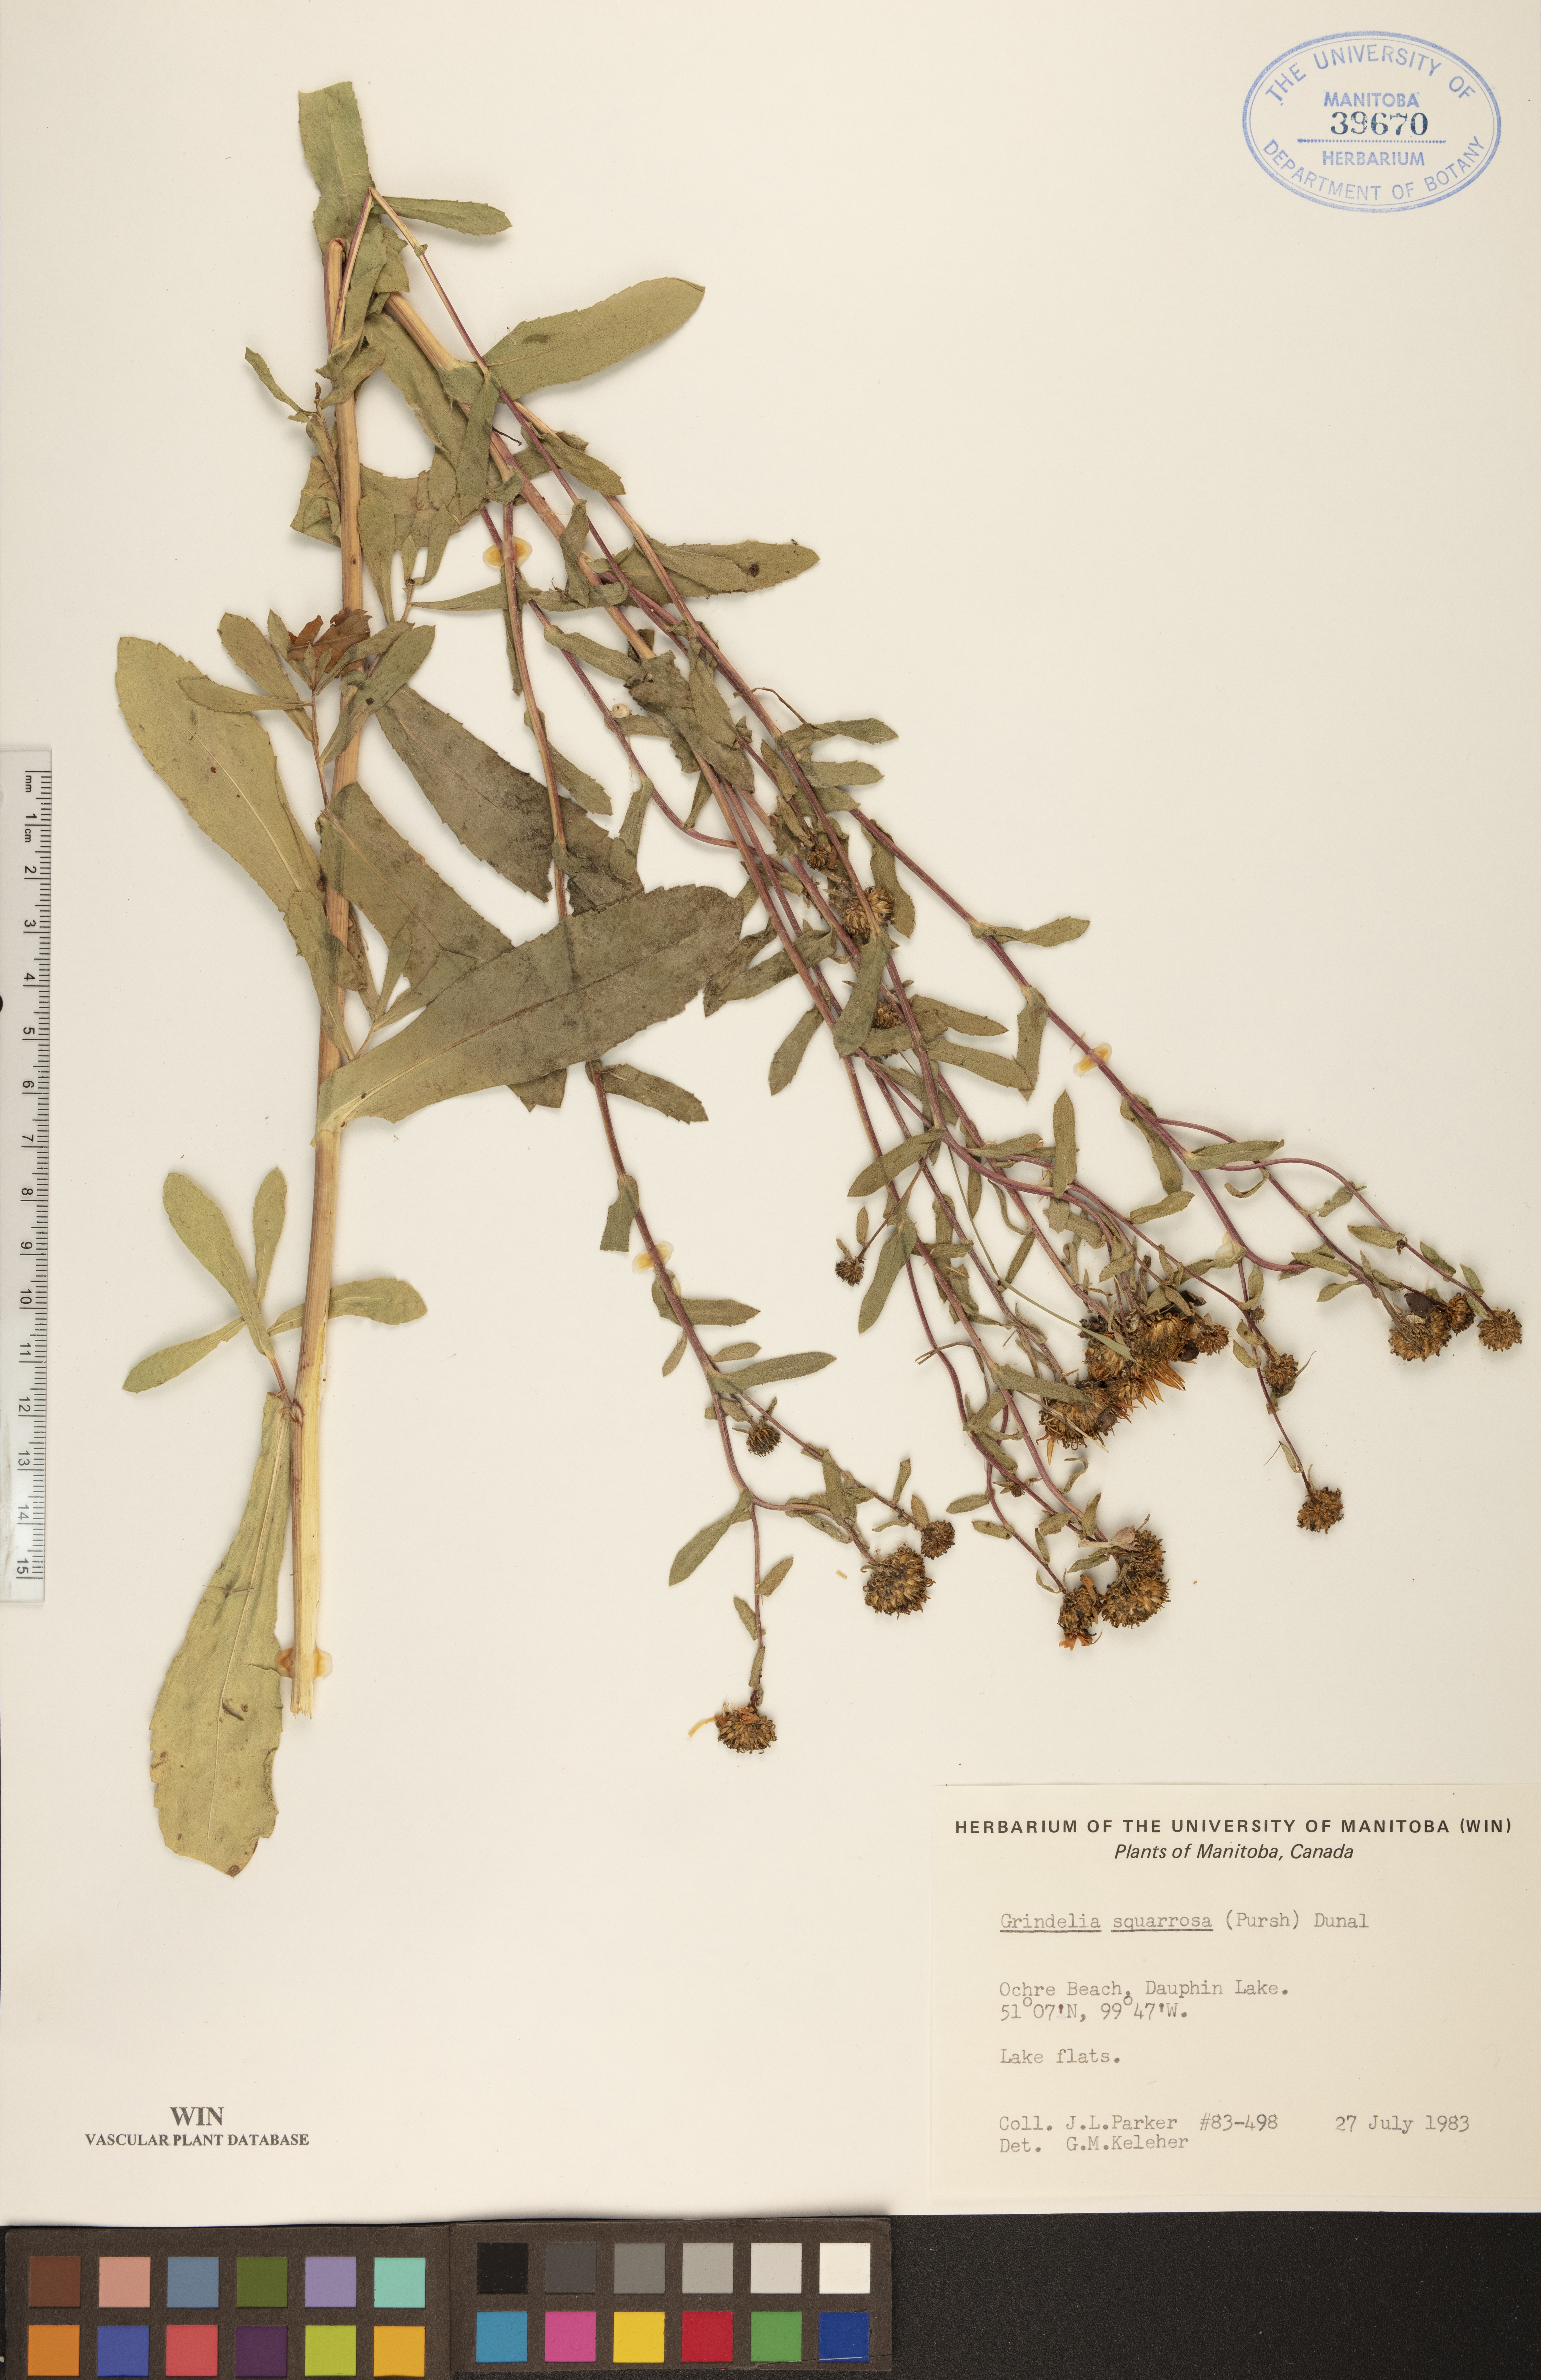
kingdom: Plantae
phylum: Tracheophyta
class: Magnoliopsida
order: Asterales
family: Asteraceae
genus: Grindelia
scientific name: Grindelia squarrosa
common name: Curly-cup gumweed
